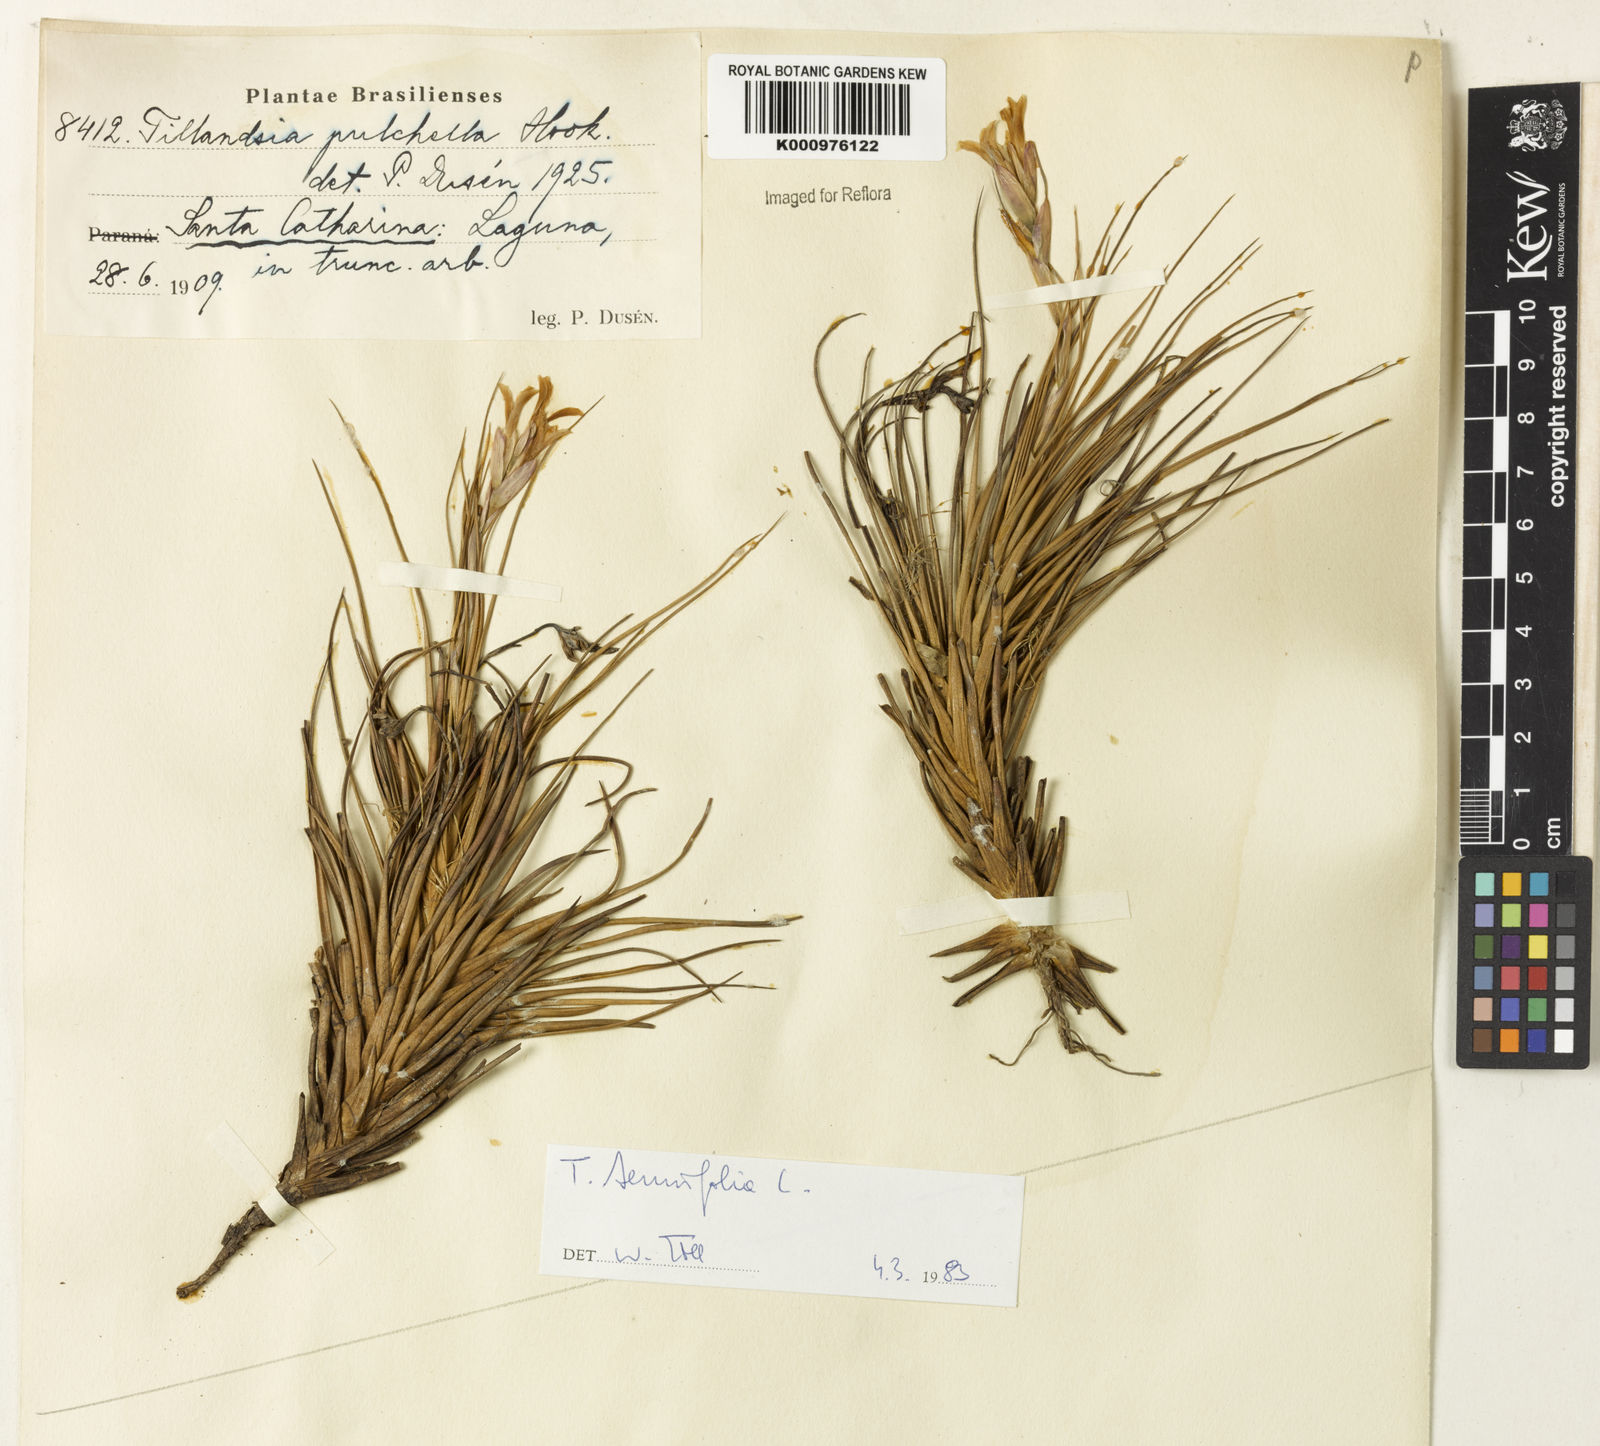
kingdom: Plantae
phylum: Tracheophyta
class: Liliopsida
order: Poales
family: Bromeliaceae
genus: Tillandsia
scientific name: Tillandsia tenuifolia
